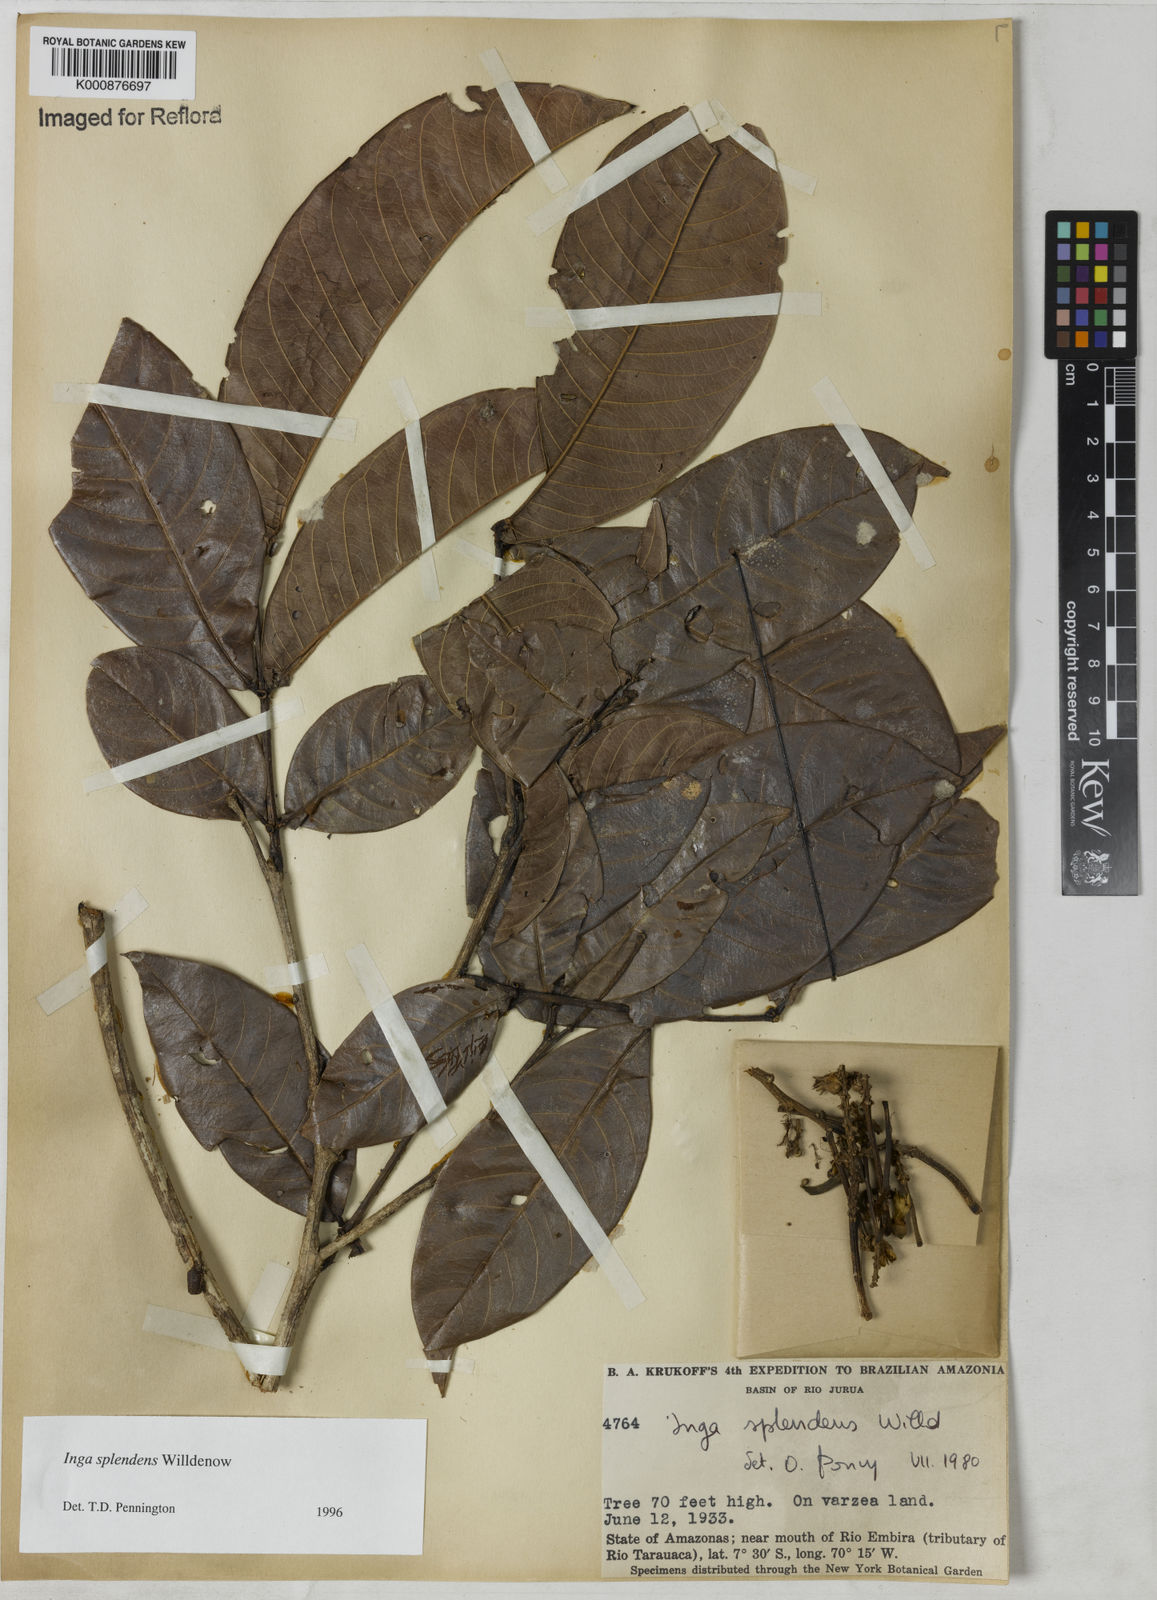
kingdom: Plantae
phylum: Tracheophyta
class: Magnoliopsida
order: Fabales
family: Fabaceae
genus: Inga
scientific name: Inga splendens
